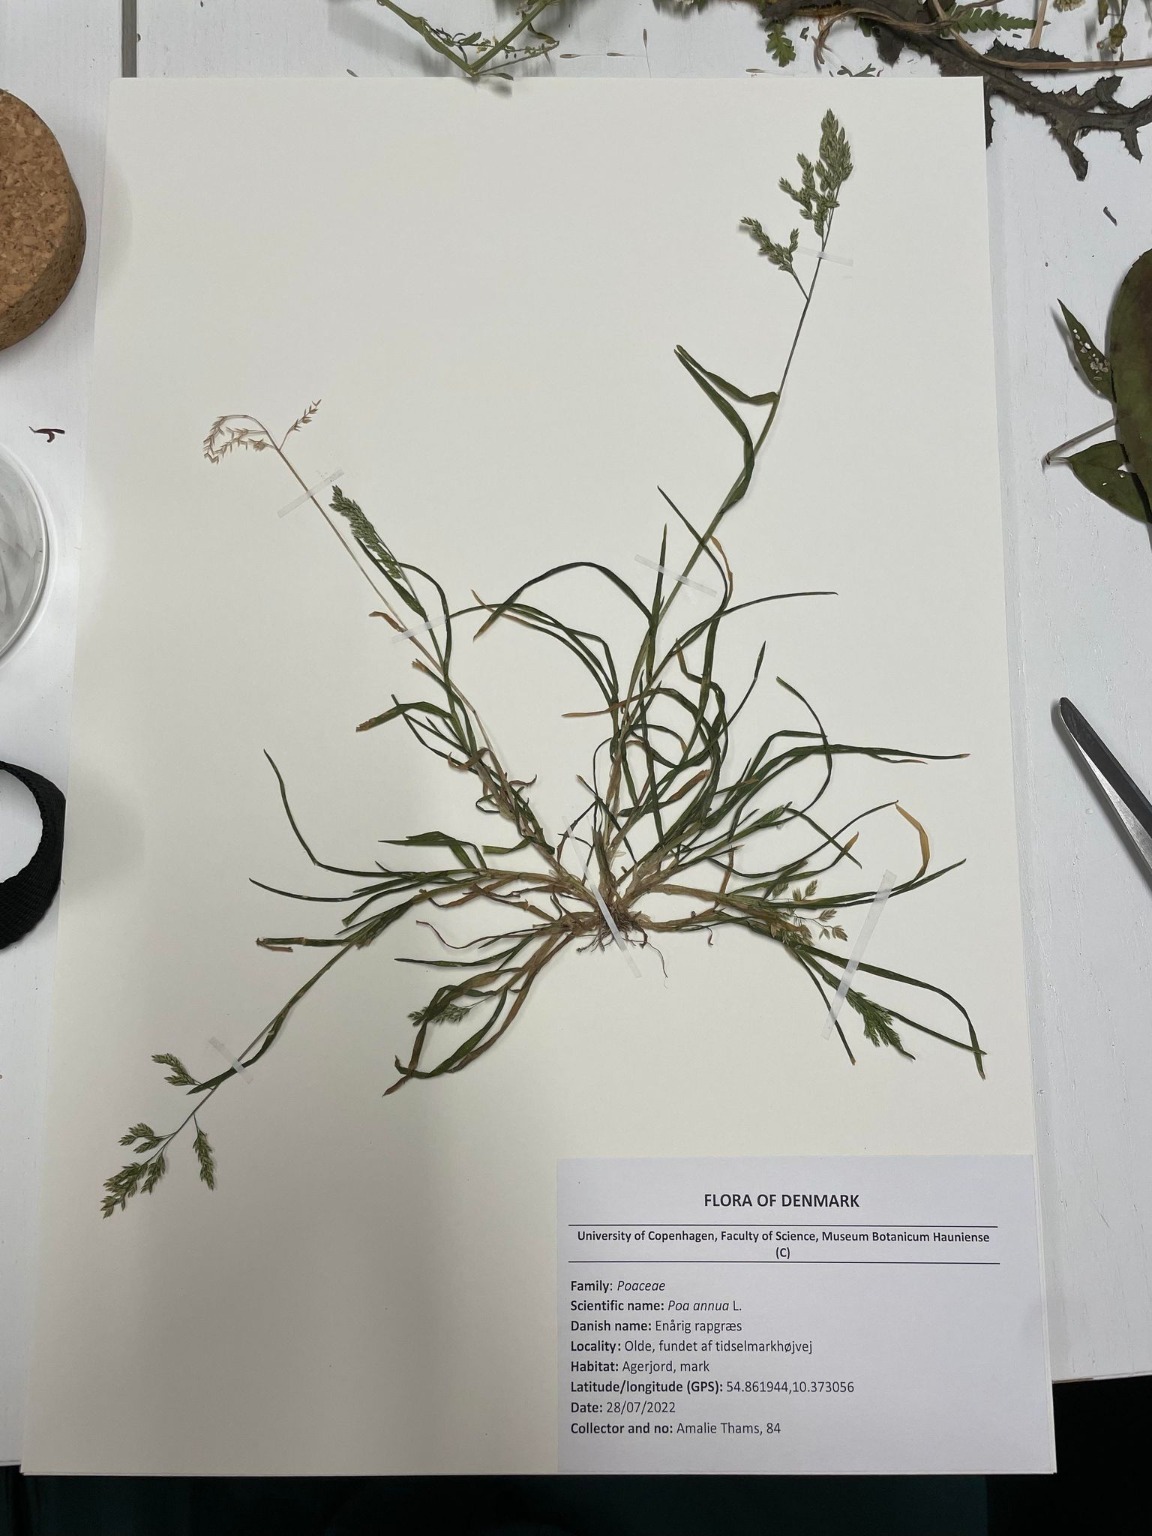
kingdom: Plantae
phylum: Tracheophyta
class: Liliopsida
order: Poales
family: Poaceae
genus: Poa
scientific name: Poa annua
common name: Enårig rapgræs
